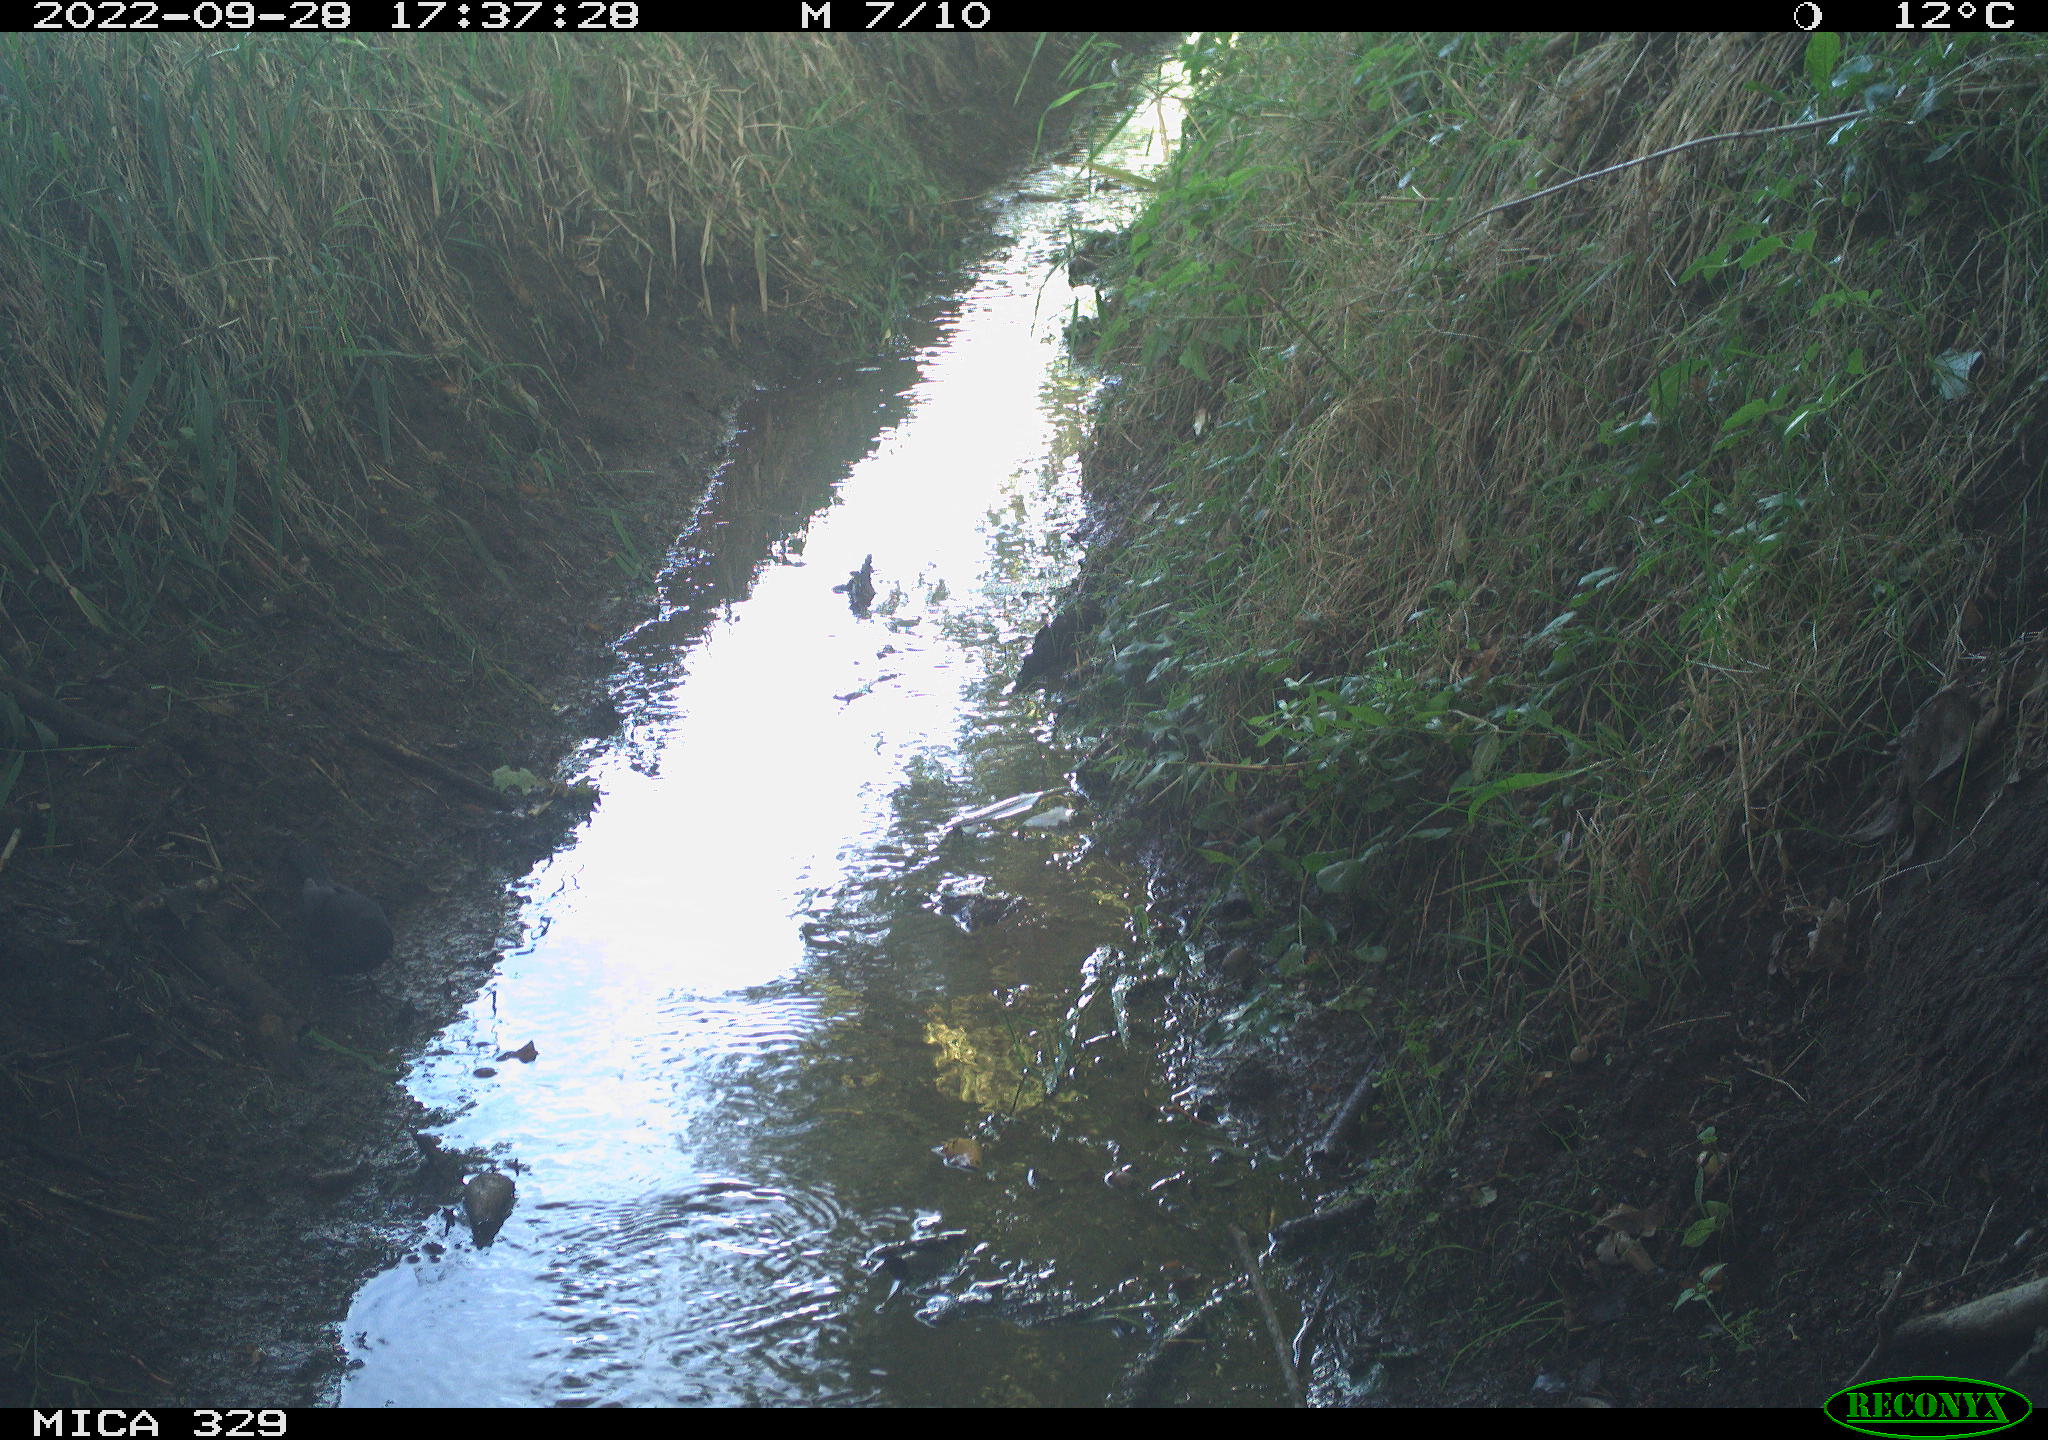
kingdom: Animalia
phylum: Chordata
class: Aves
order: Passeriformes
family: Turdidae
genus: Turdus
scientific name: Turdus
